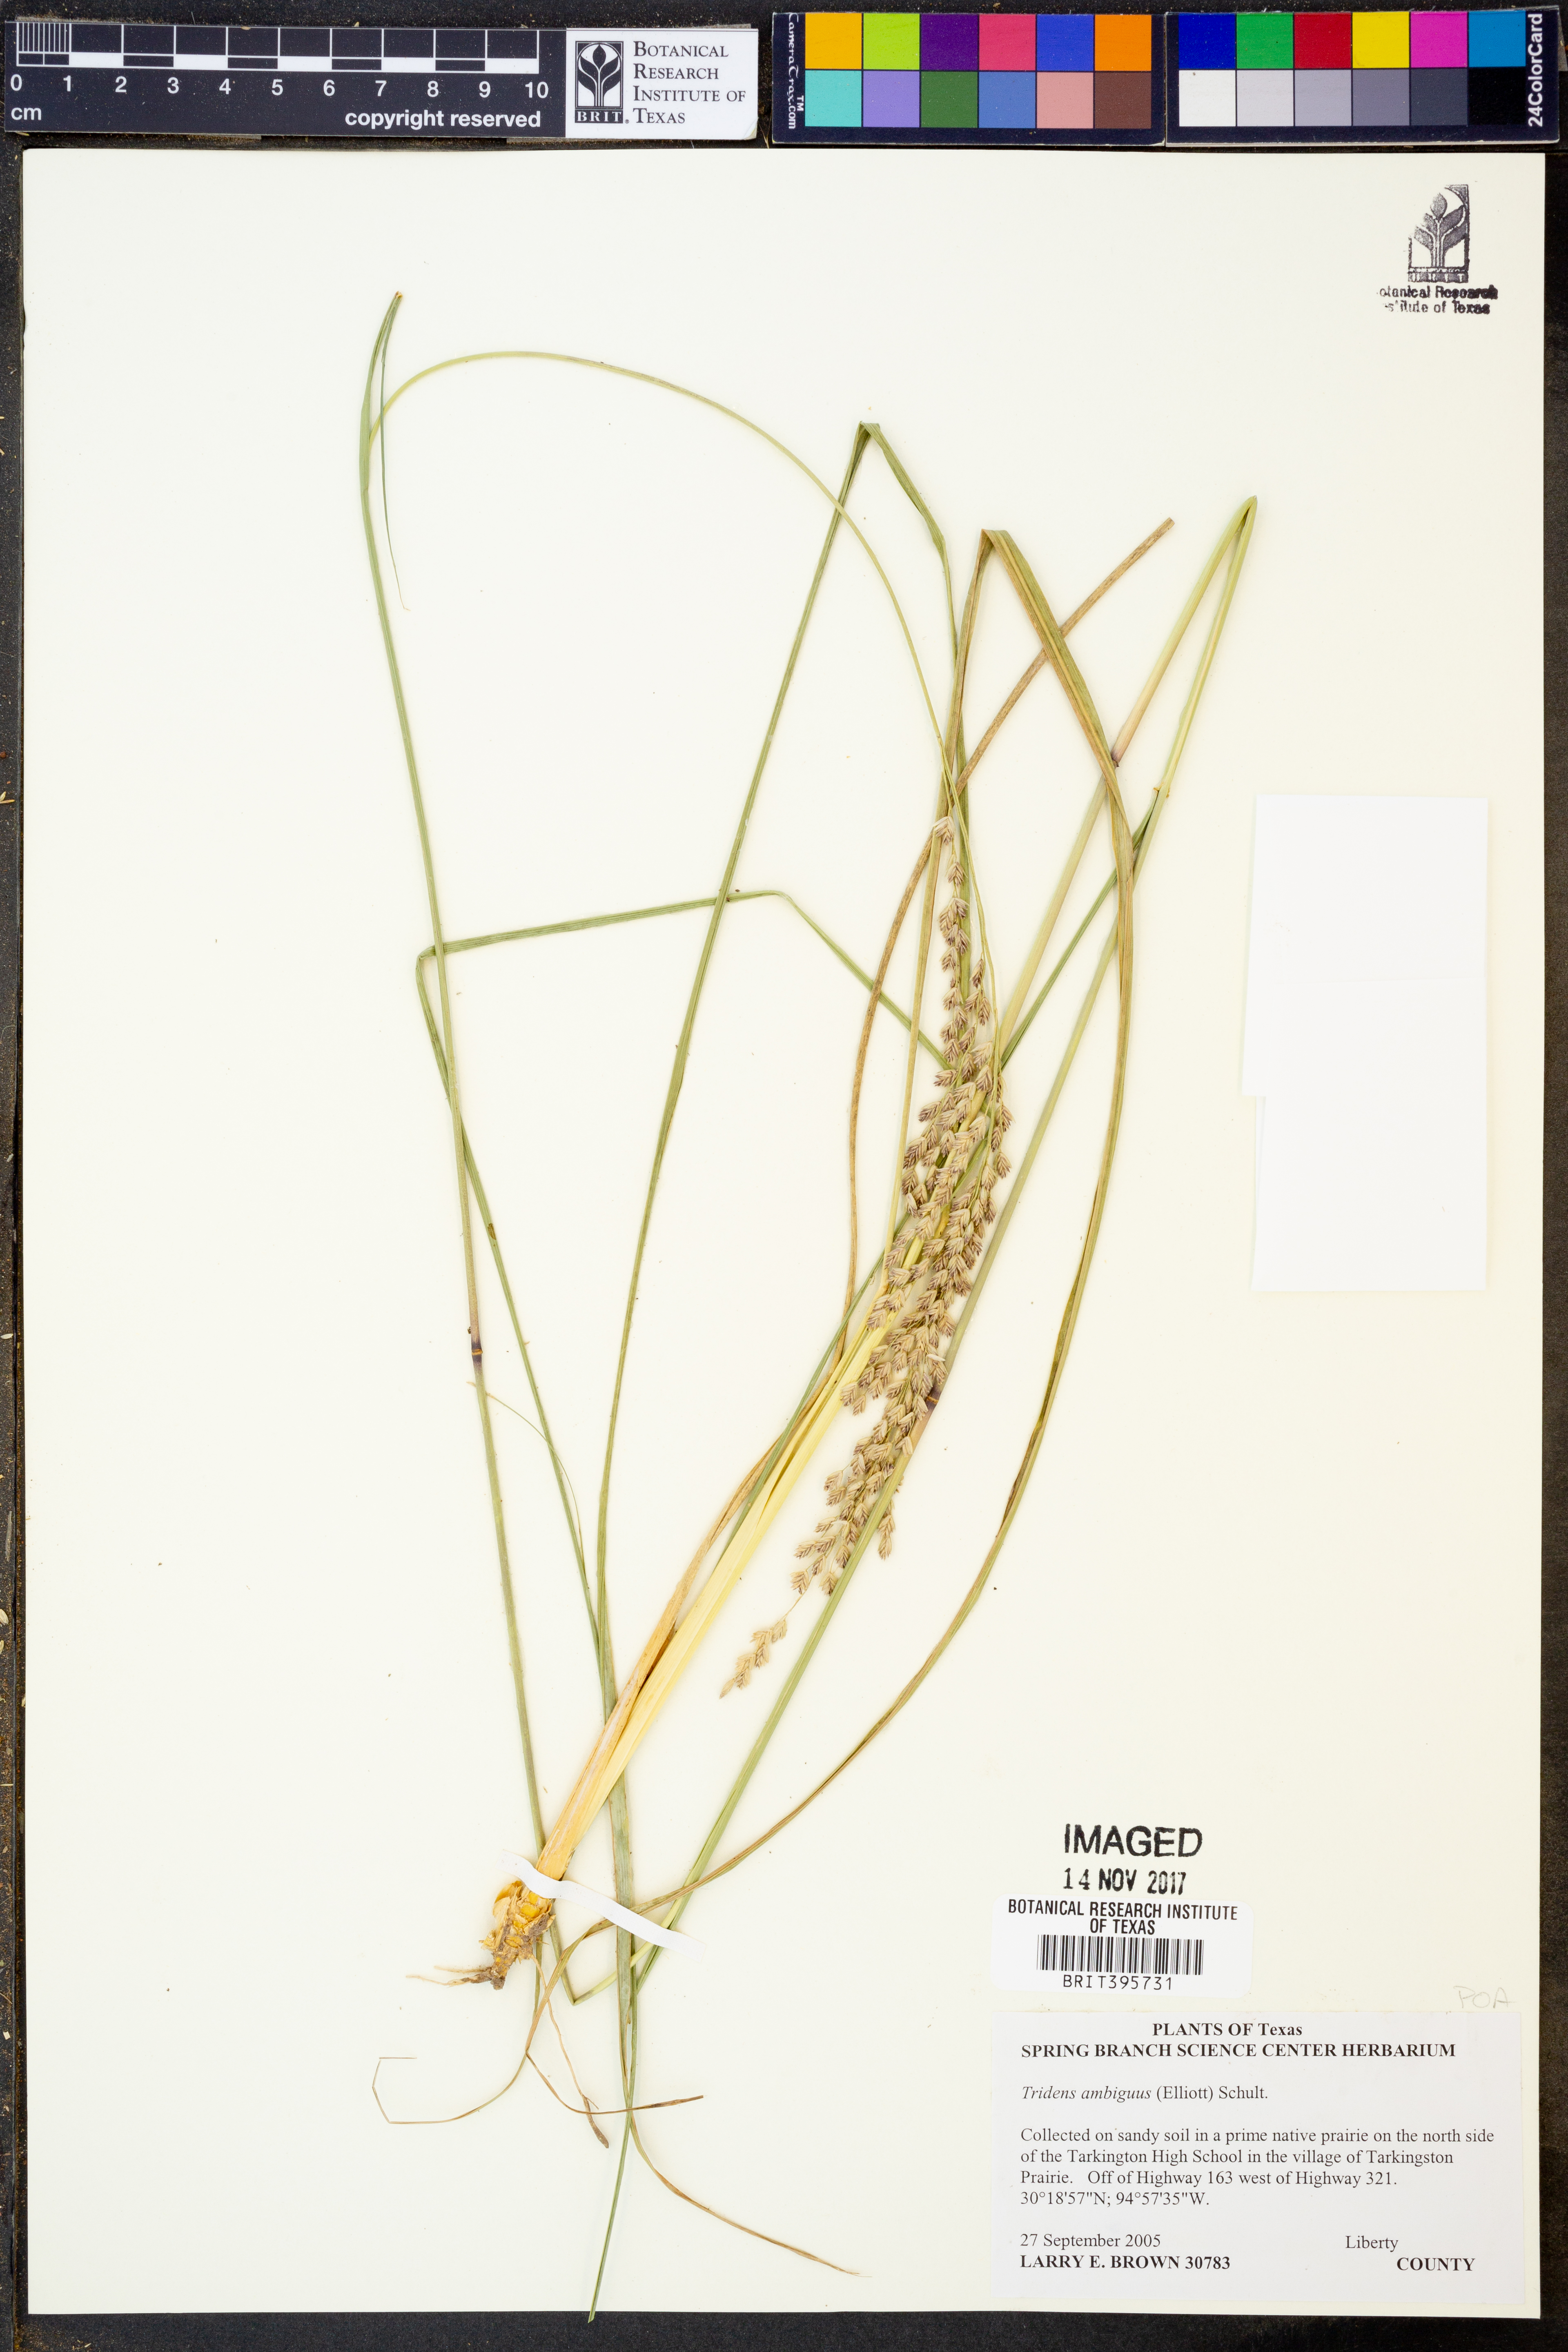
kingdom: Plantae
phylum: Tracheophyta
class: Liliopsida
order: Poales
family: Poaceae
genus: Tridens
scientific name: Tridens ambiguus
